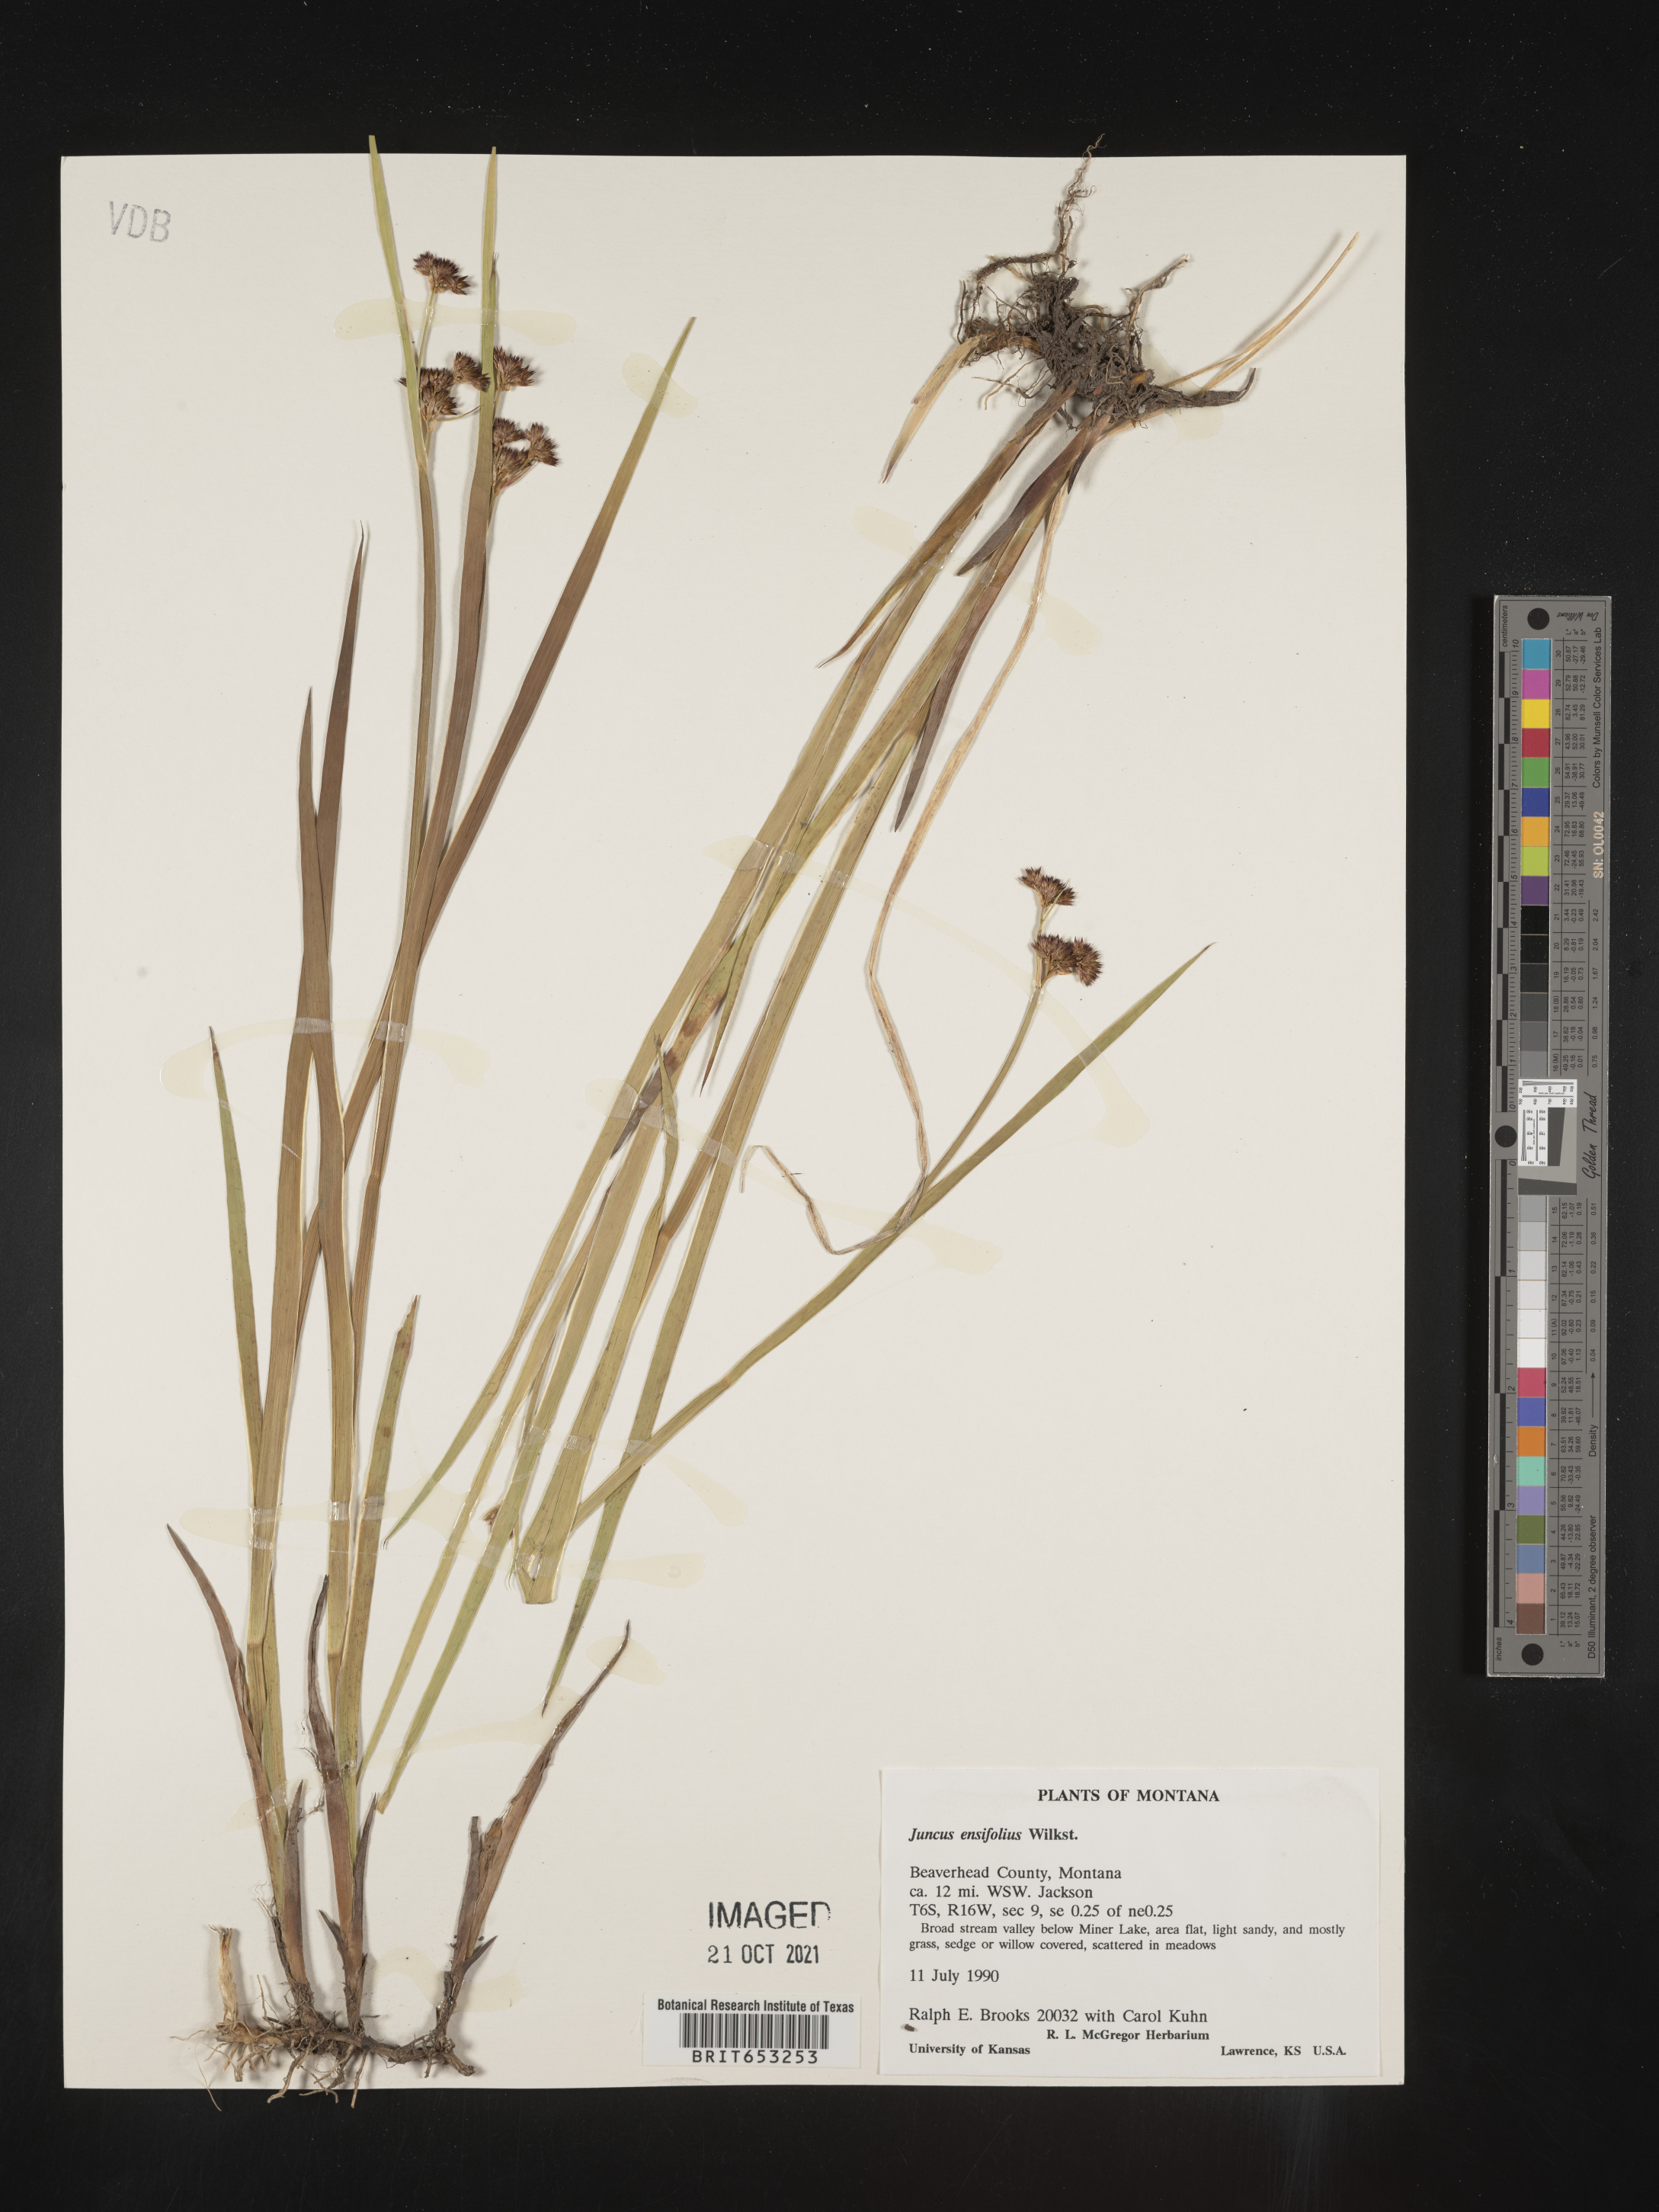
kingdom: Plantae
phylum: Tracheophyta
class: Liliopsida
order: Poales
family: Juncaceae
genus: Juncus
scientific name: Juncus ensifolius
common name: Sword-leaved rush
